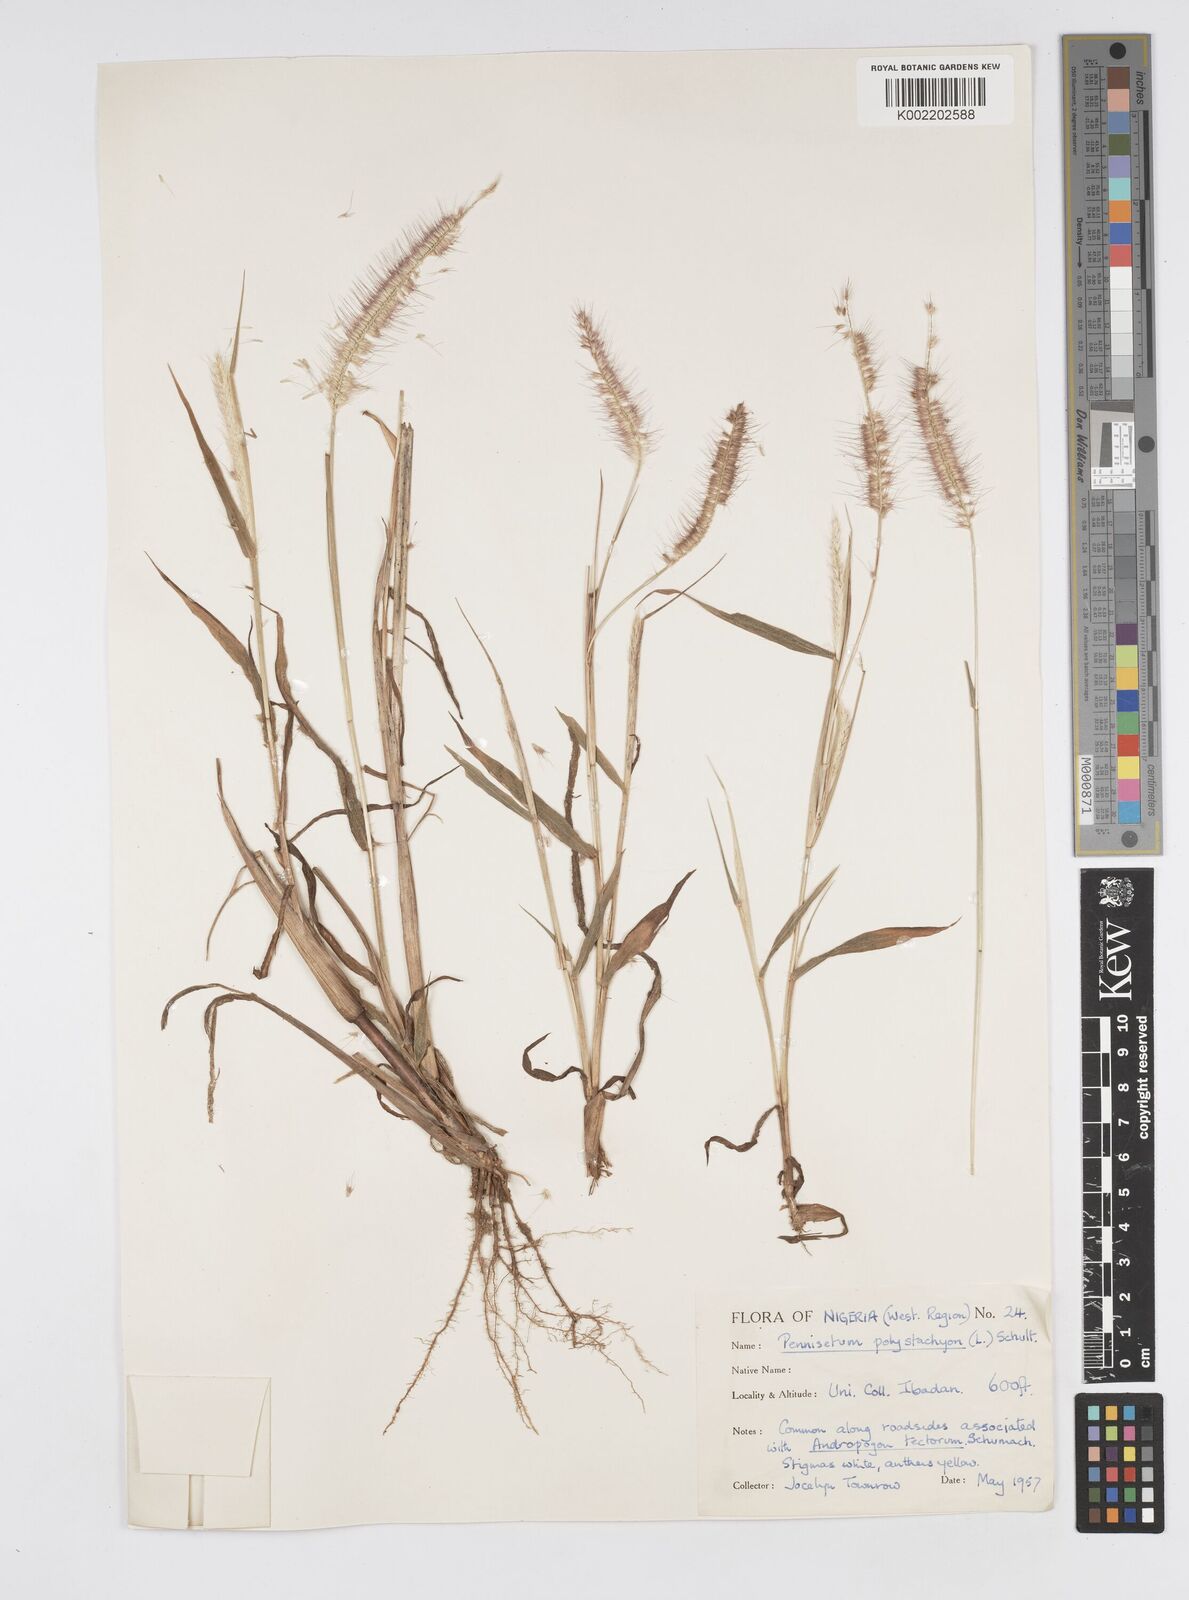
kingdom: Plantae
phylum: Tracheophyta
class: Liliopsida
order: Poales
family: Poaceae
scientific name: Poaceae
